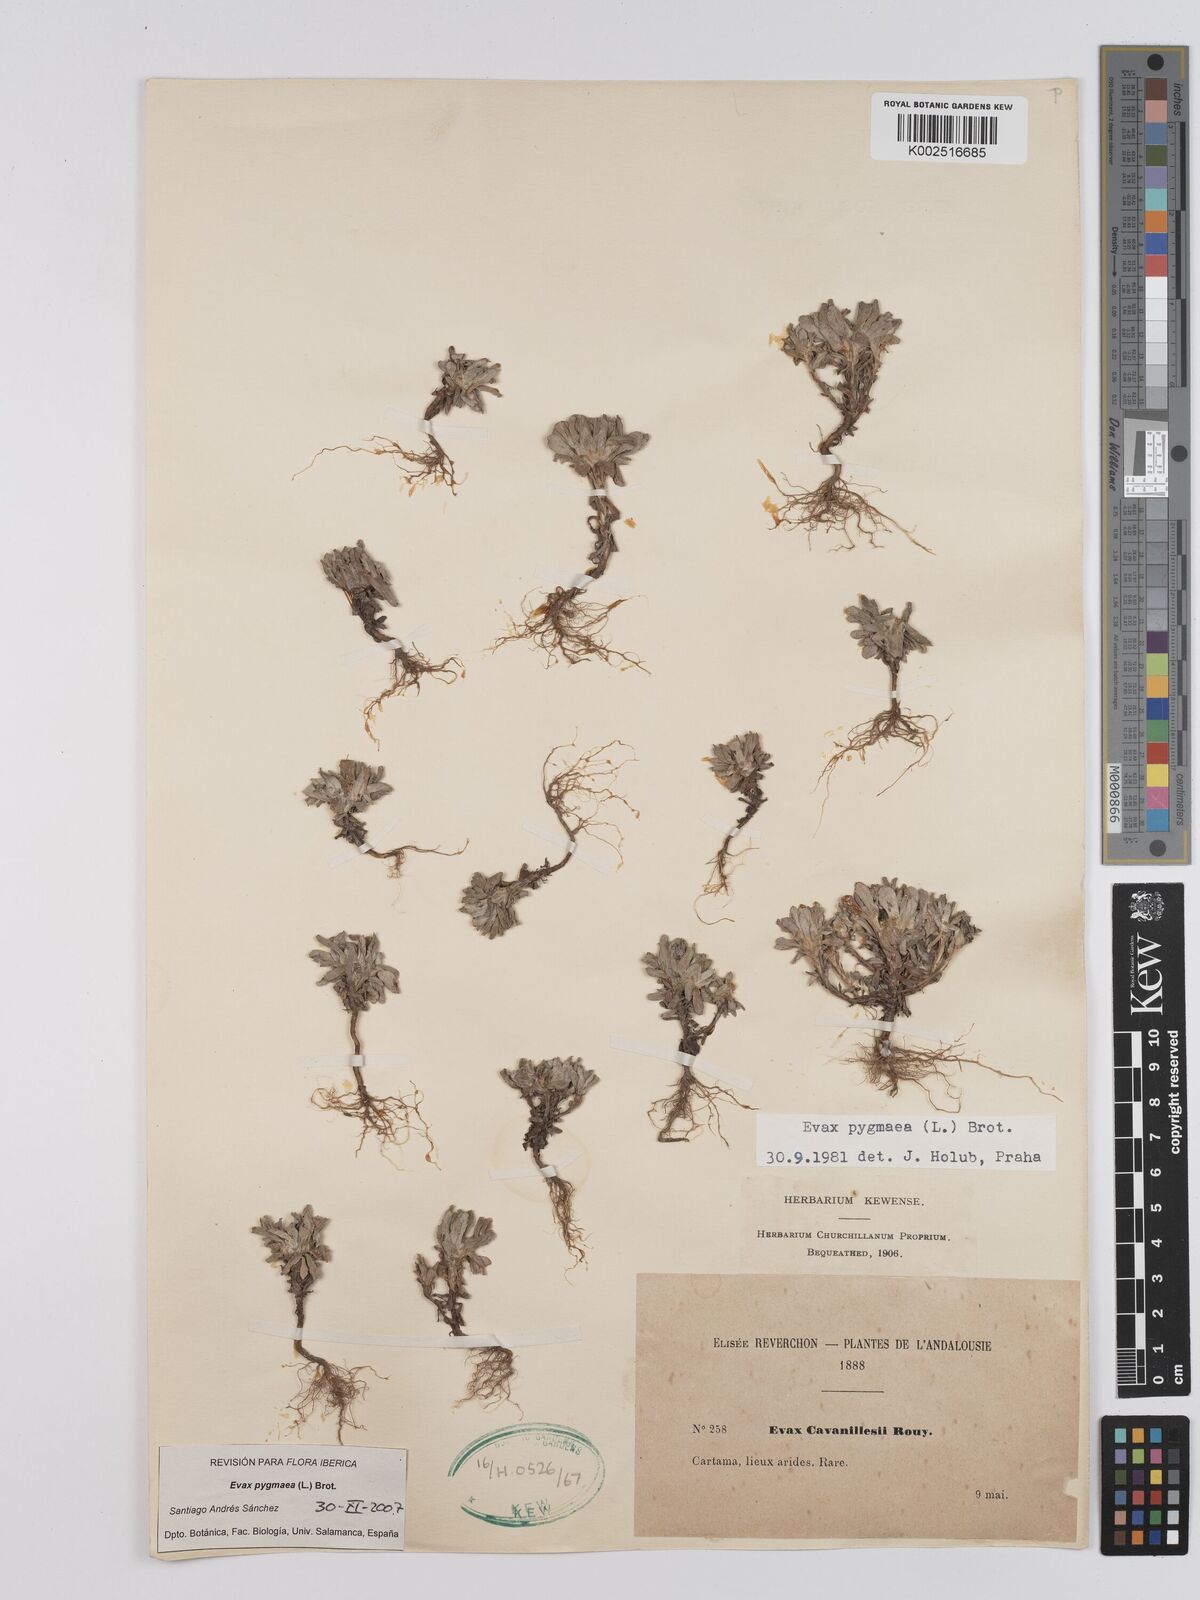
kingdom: Plantae
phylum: Tracheophyta
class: Magnoliopsida
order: Asterales
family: Asteraceae
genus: Filago
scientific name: Filago pygmaea
